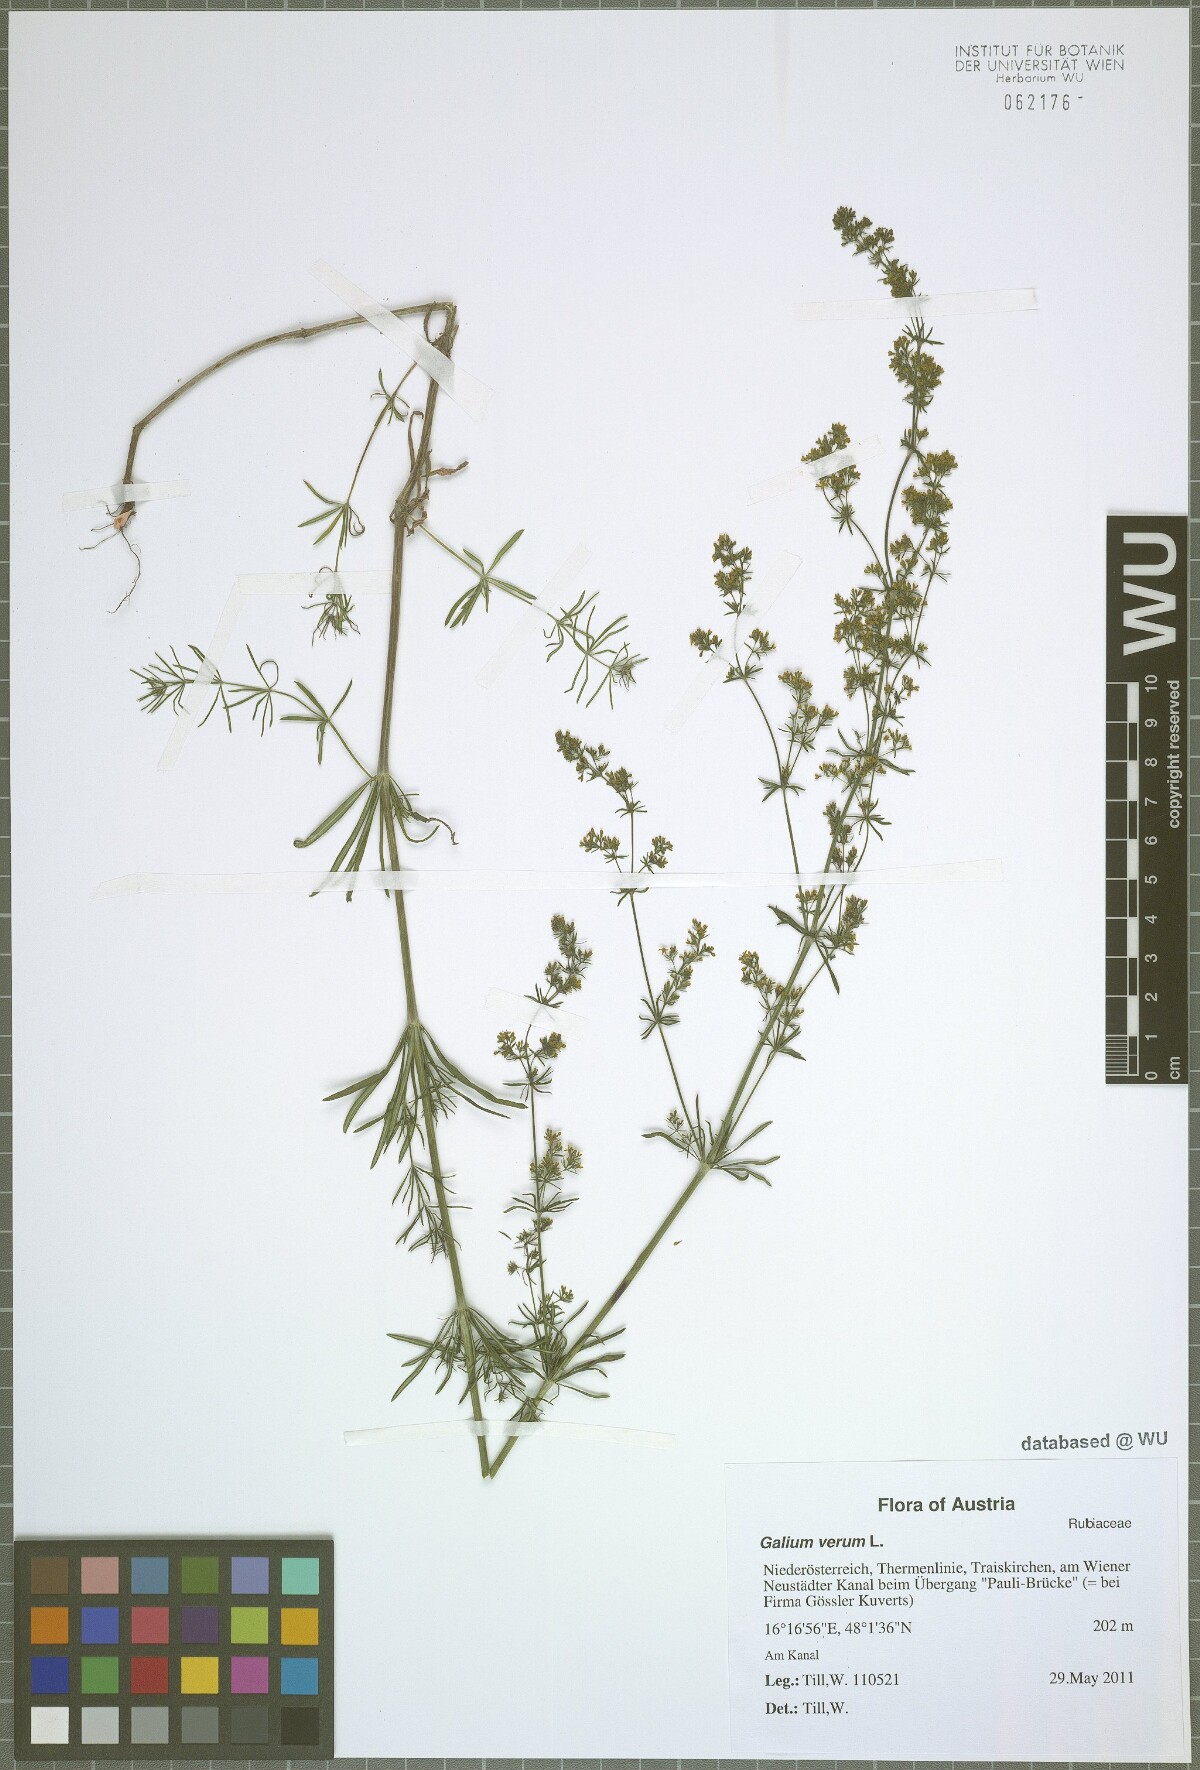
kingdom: Plantae
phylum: Tracheophyta
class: Magnoliopsida
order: Gentianales
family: Rubiaceae
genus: Galium
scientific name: Galium verum
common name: Lady's bedstraw
